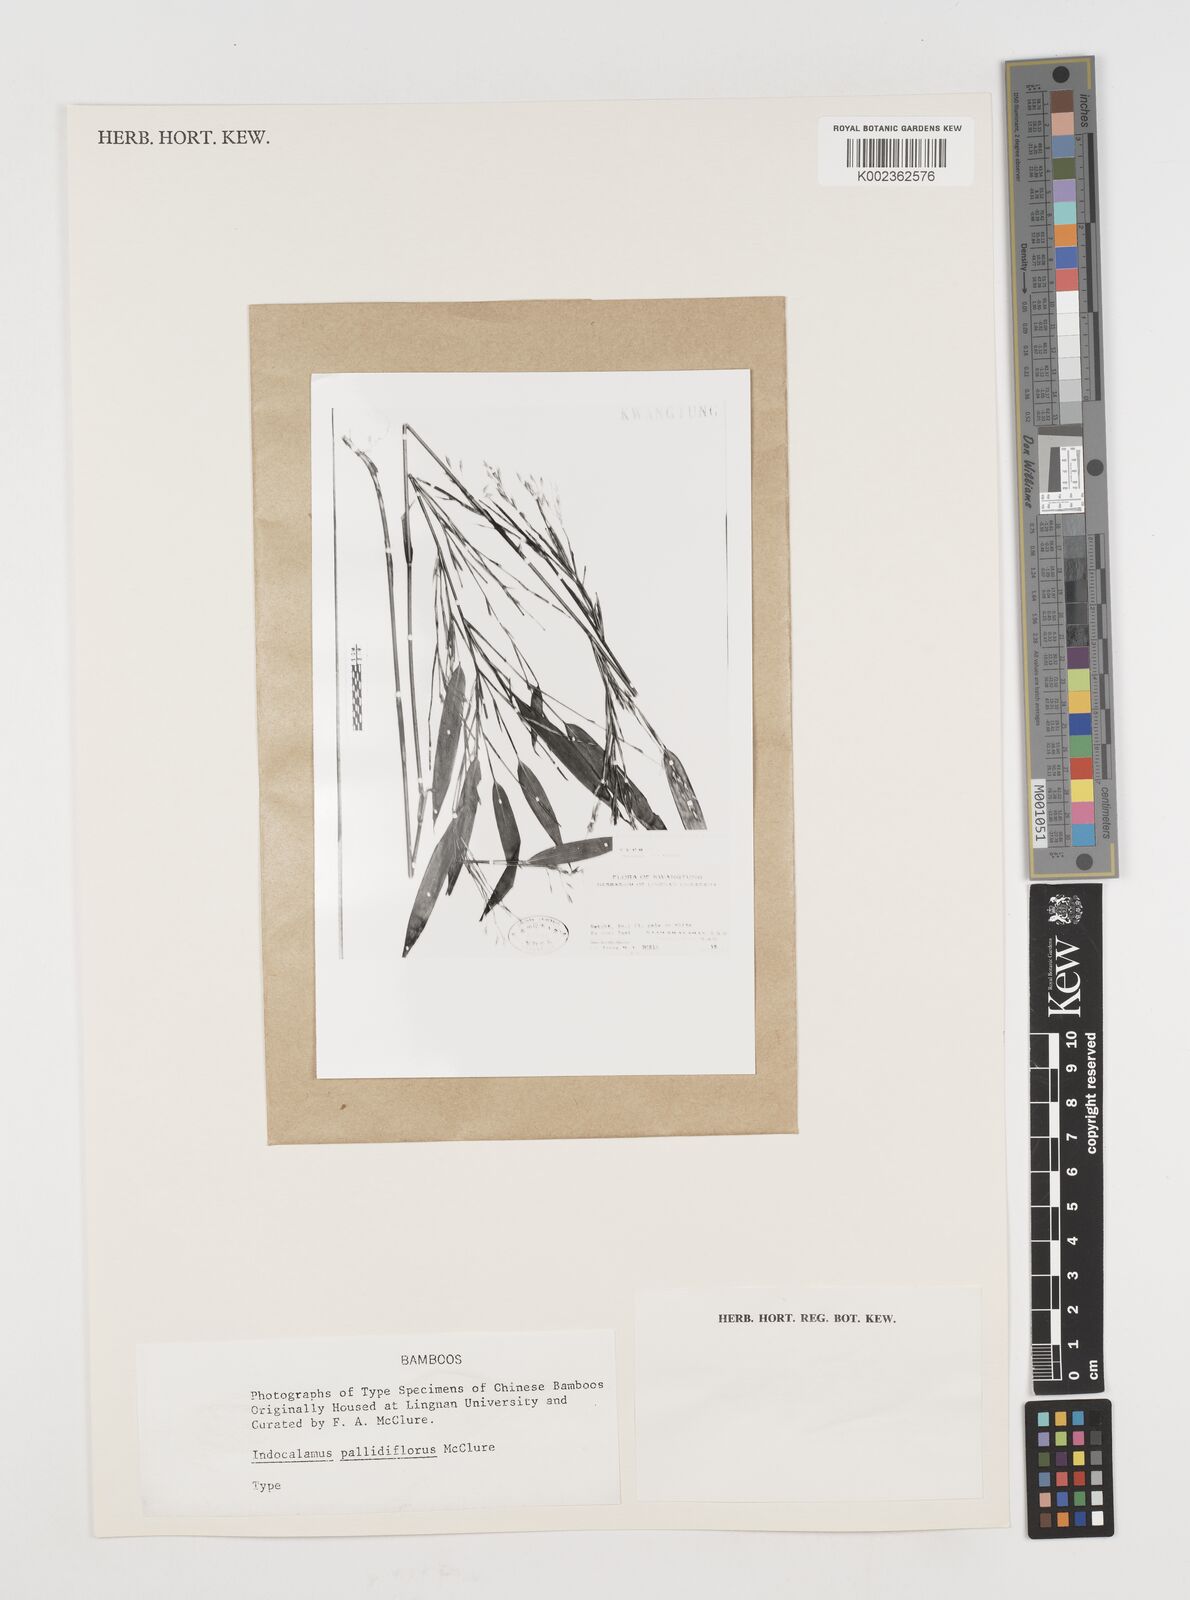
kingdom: Plantae
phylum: Tracheophyta
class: Liliopsida
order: Poales
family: Poaceae
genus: Pseudosasa
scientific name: Pseudosasa pubiflora
